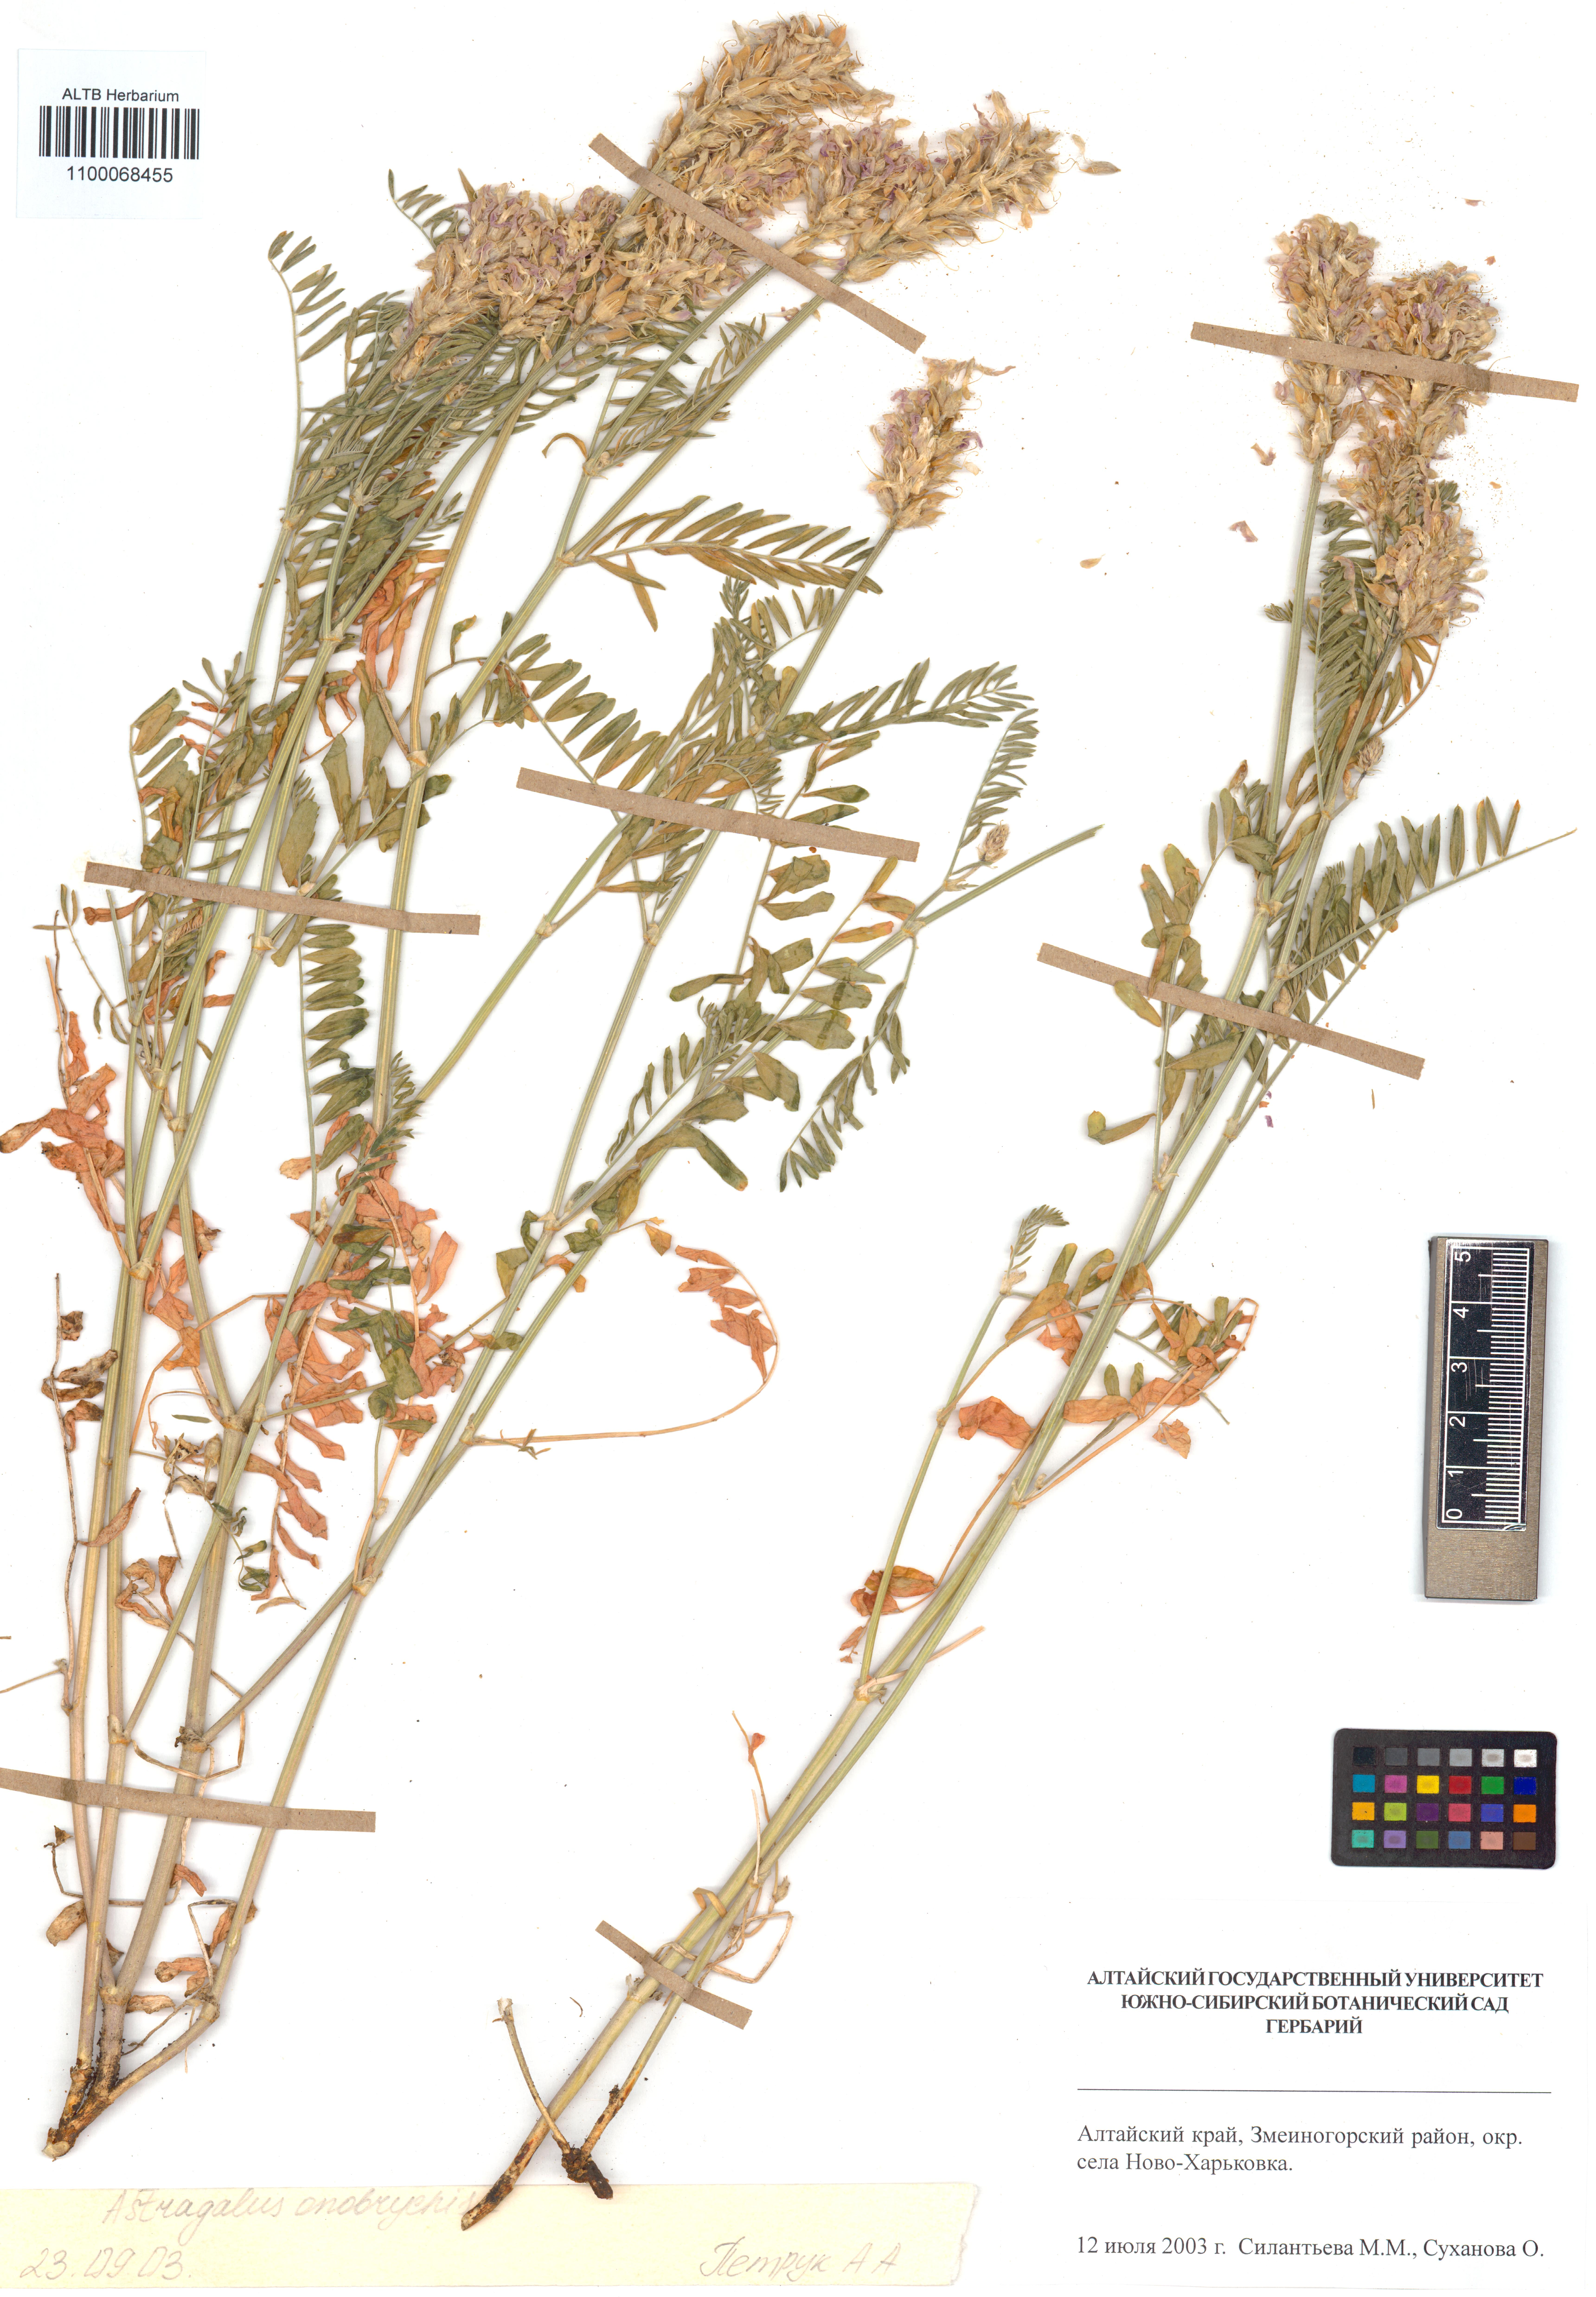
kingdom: Plantae
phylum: Tracheophyta
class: Magnoliopsida
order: Fabales
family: Fabaceae
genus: Astragalus
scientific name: Astragalus onobrychis
